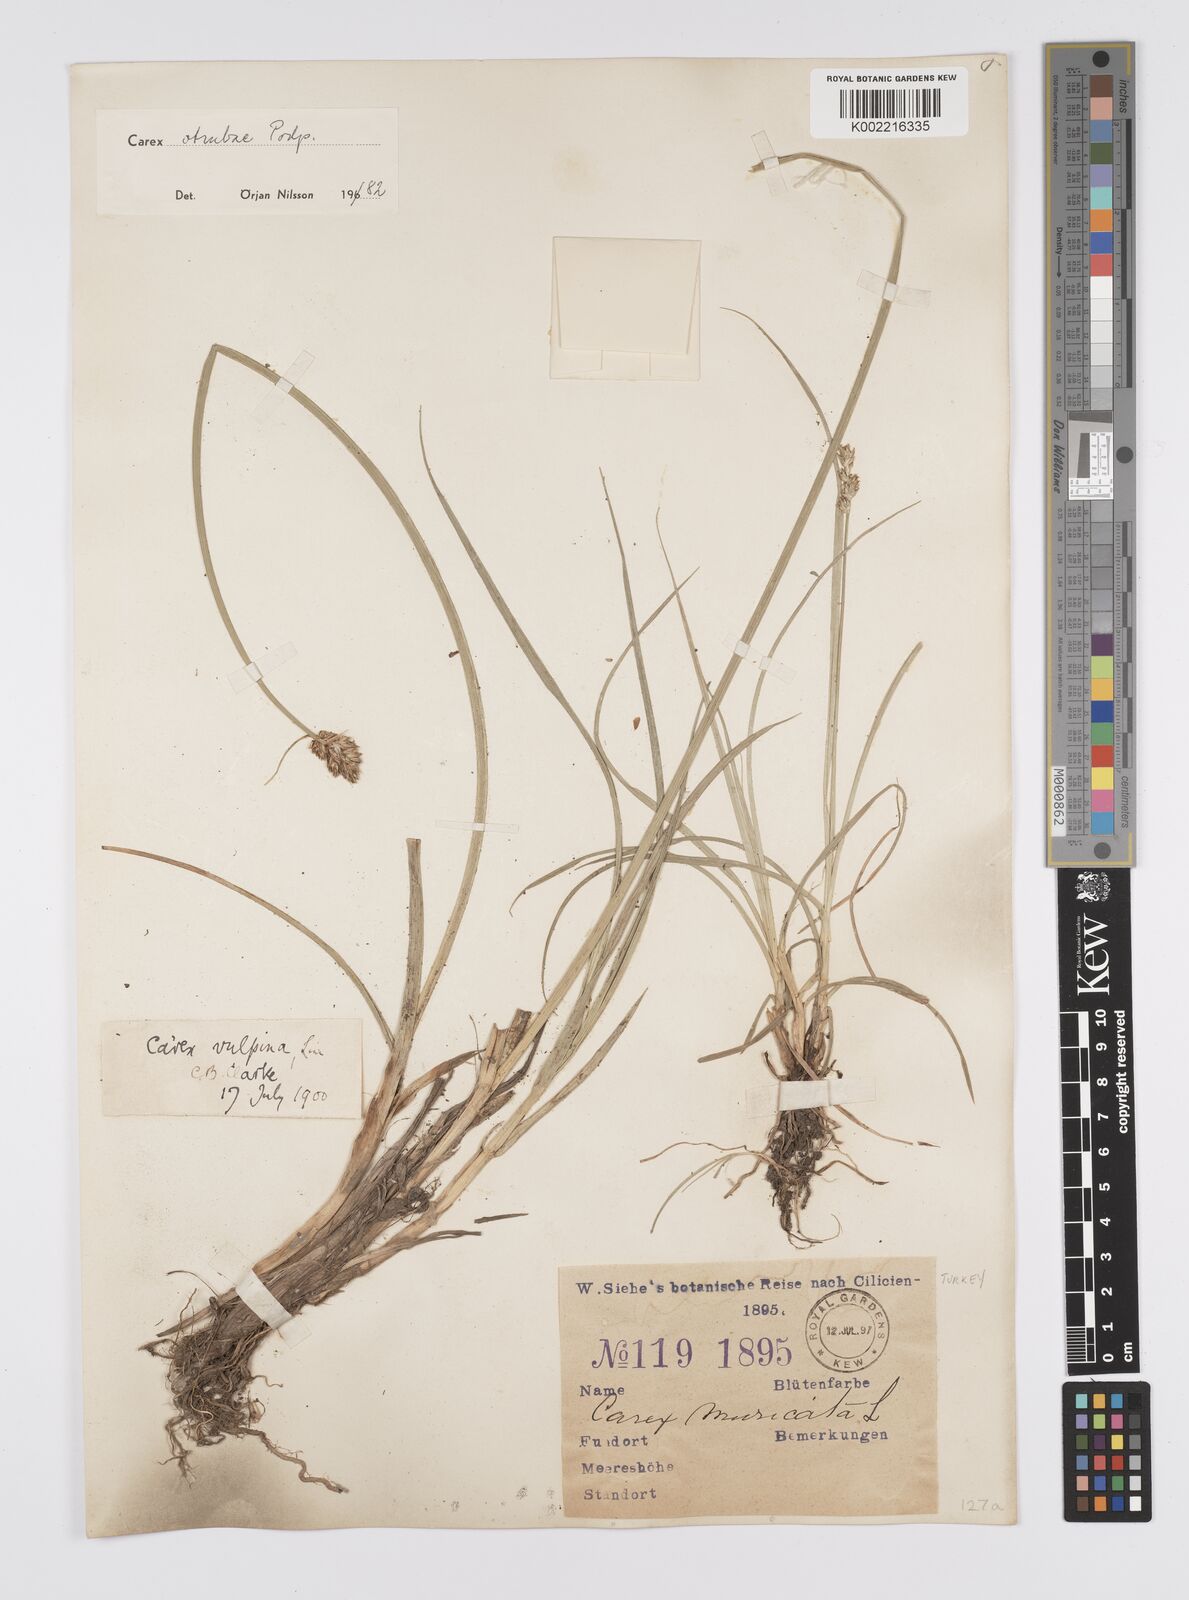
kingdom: Plantae
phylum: Tracheophyta
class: Liliopsida
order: Poales
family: Cyperaceae
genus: Carex
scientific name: Carex otrubae
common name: False fox-sedge
